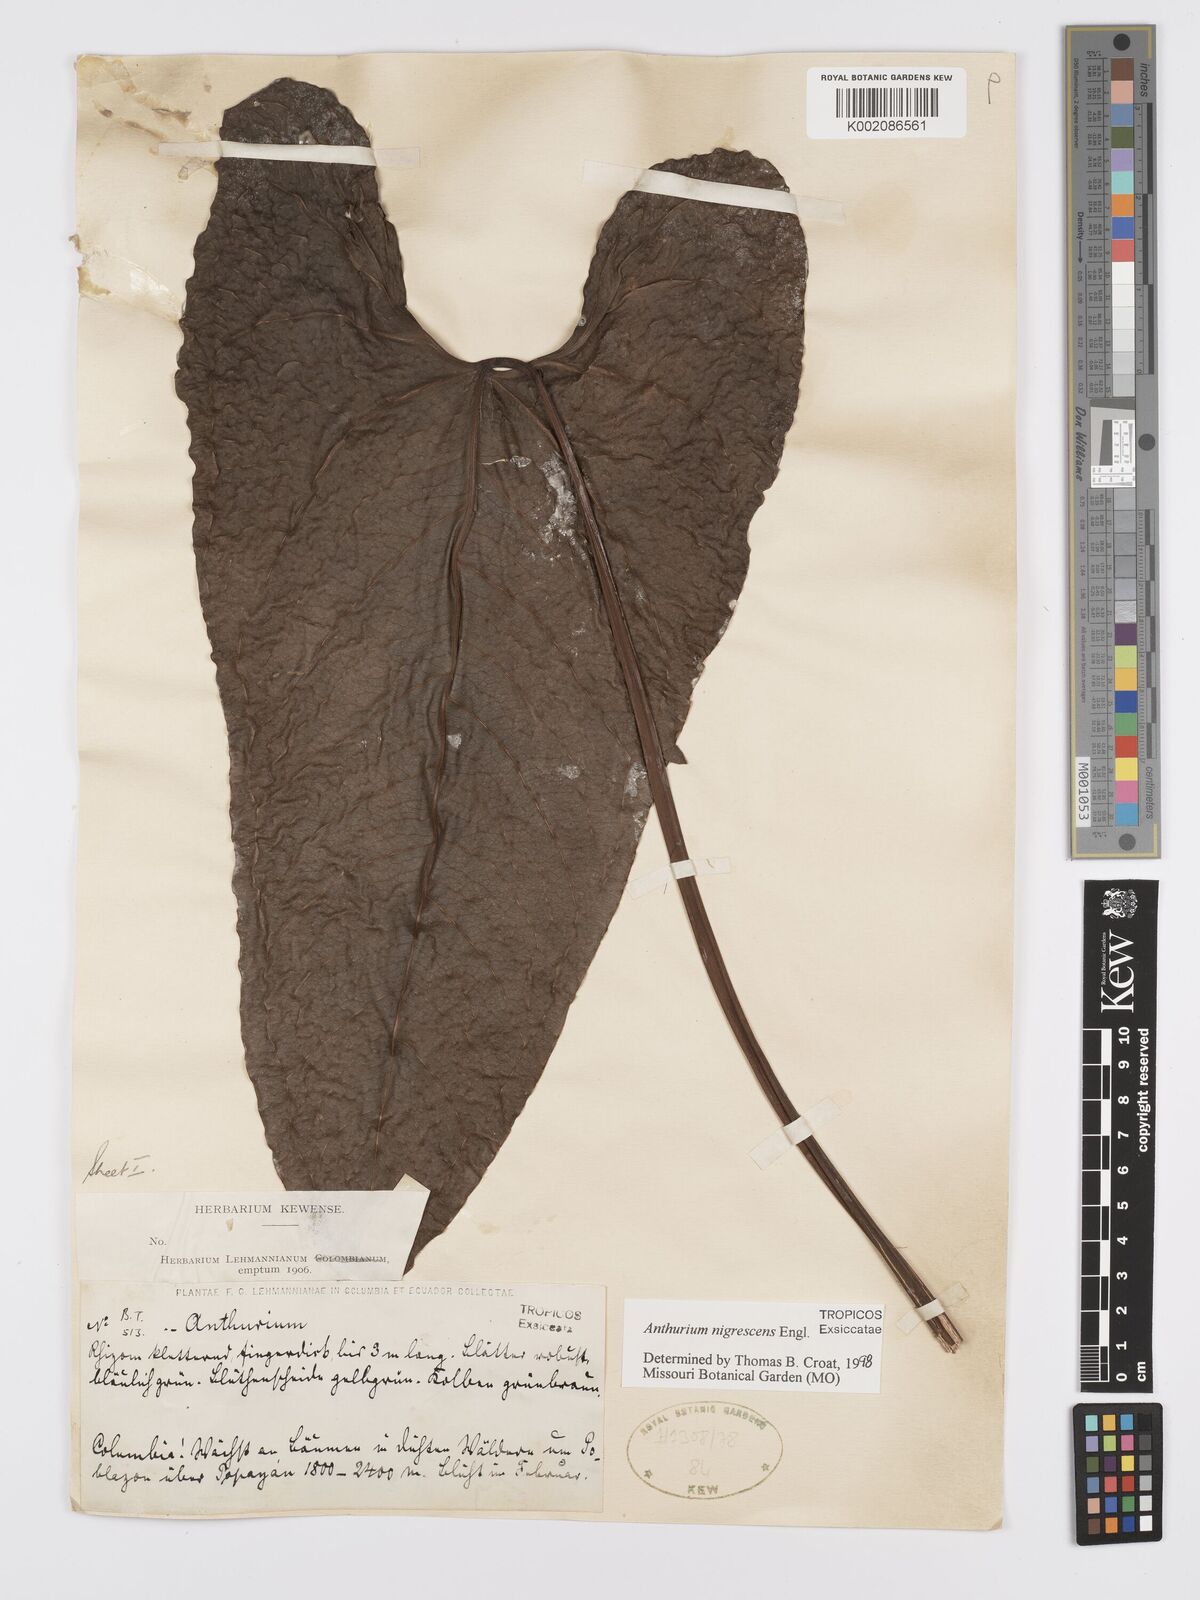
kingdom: Plantae
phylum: Tracheophyta
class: Liliopsida
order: Alismatales
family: Araceae
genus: Anthurium
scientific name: Anthurium nigrescens
